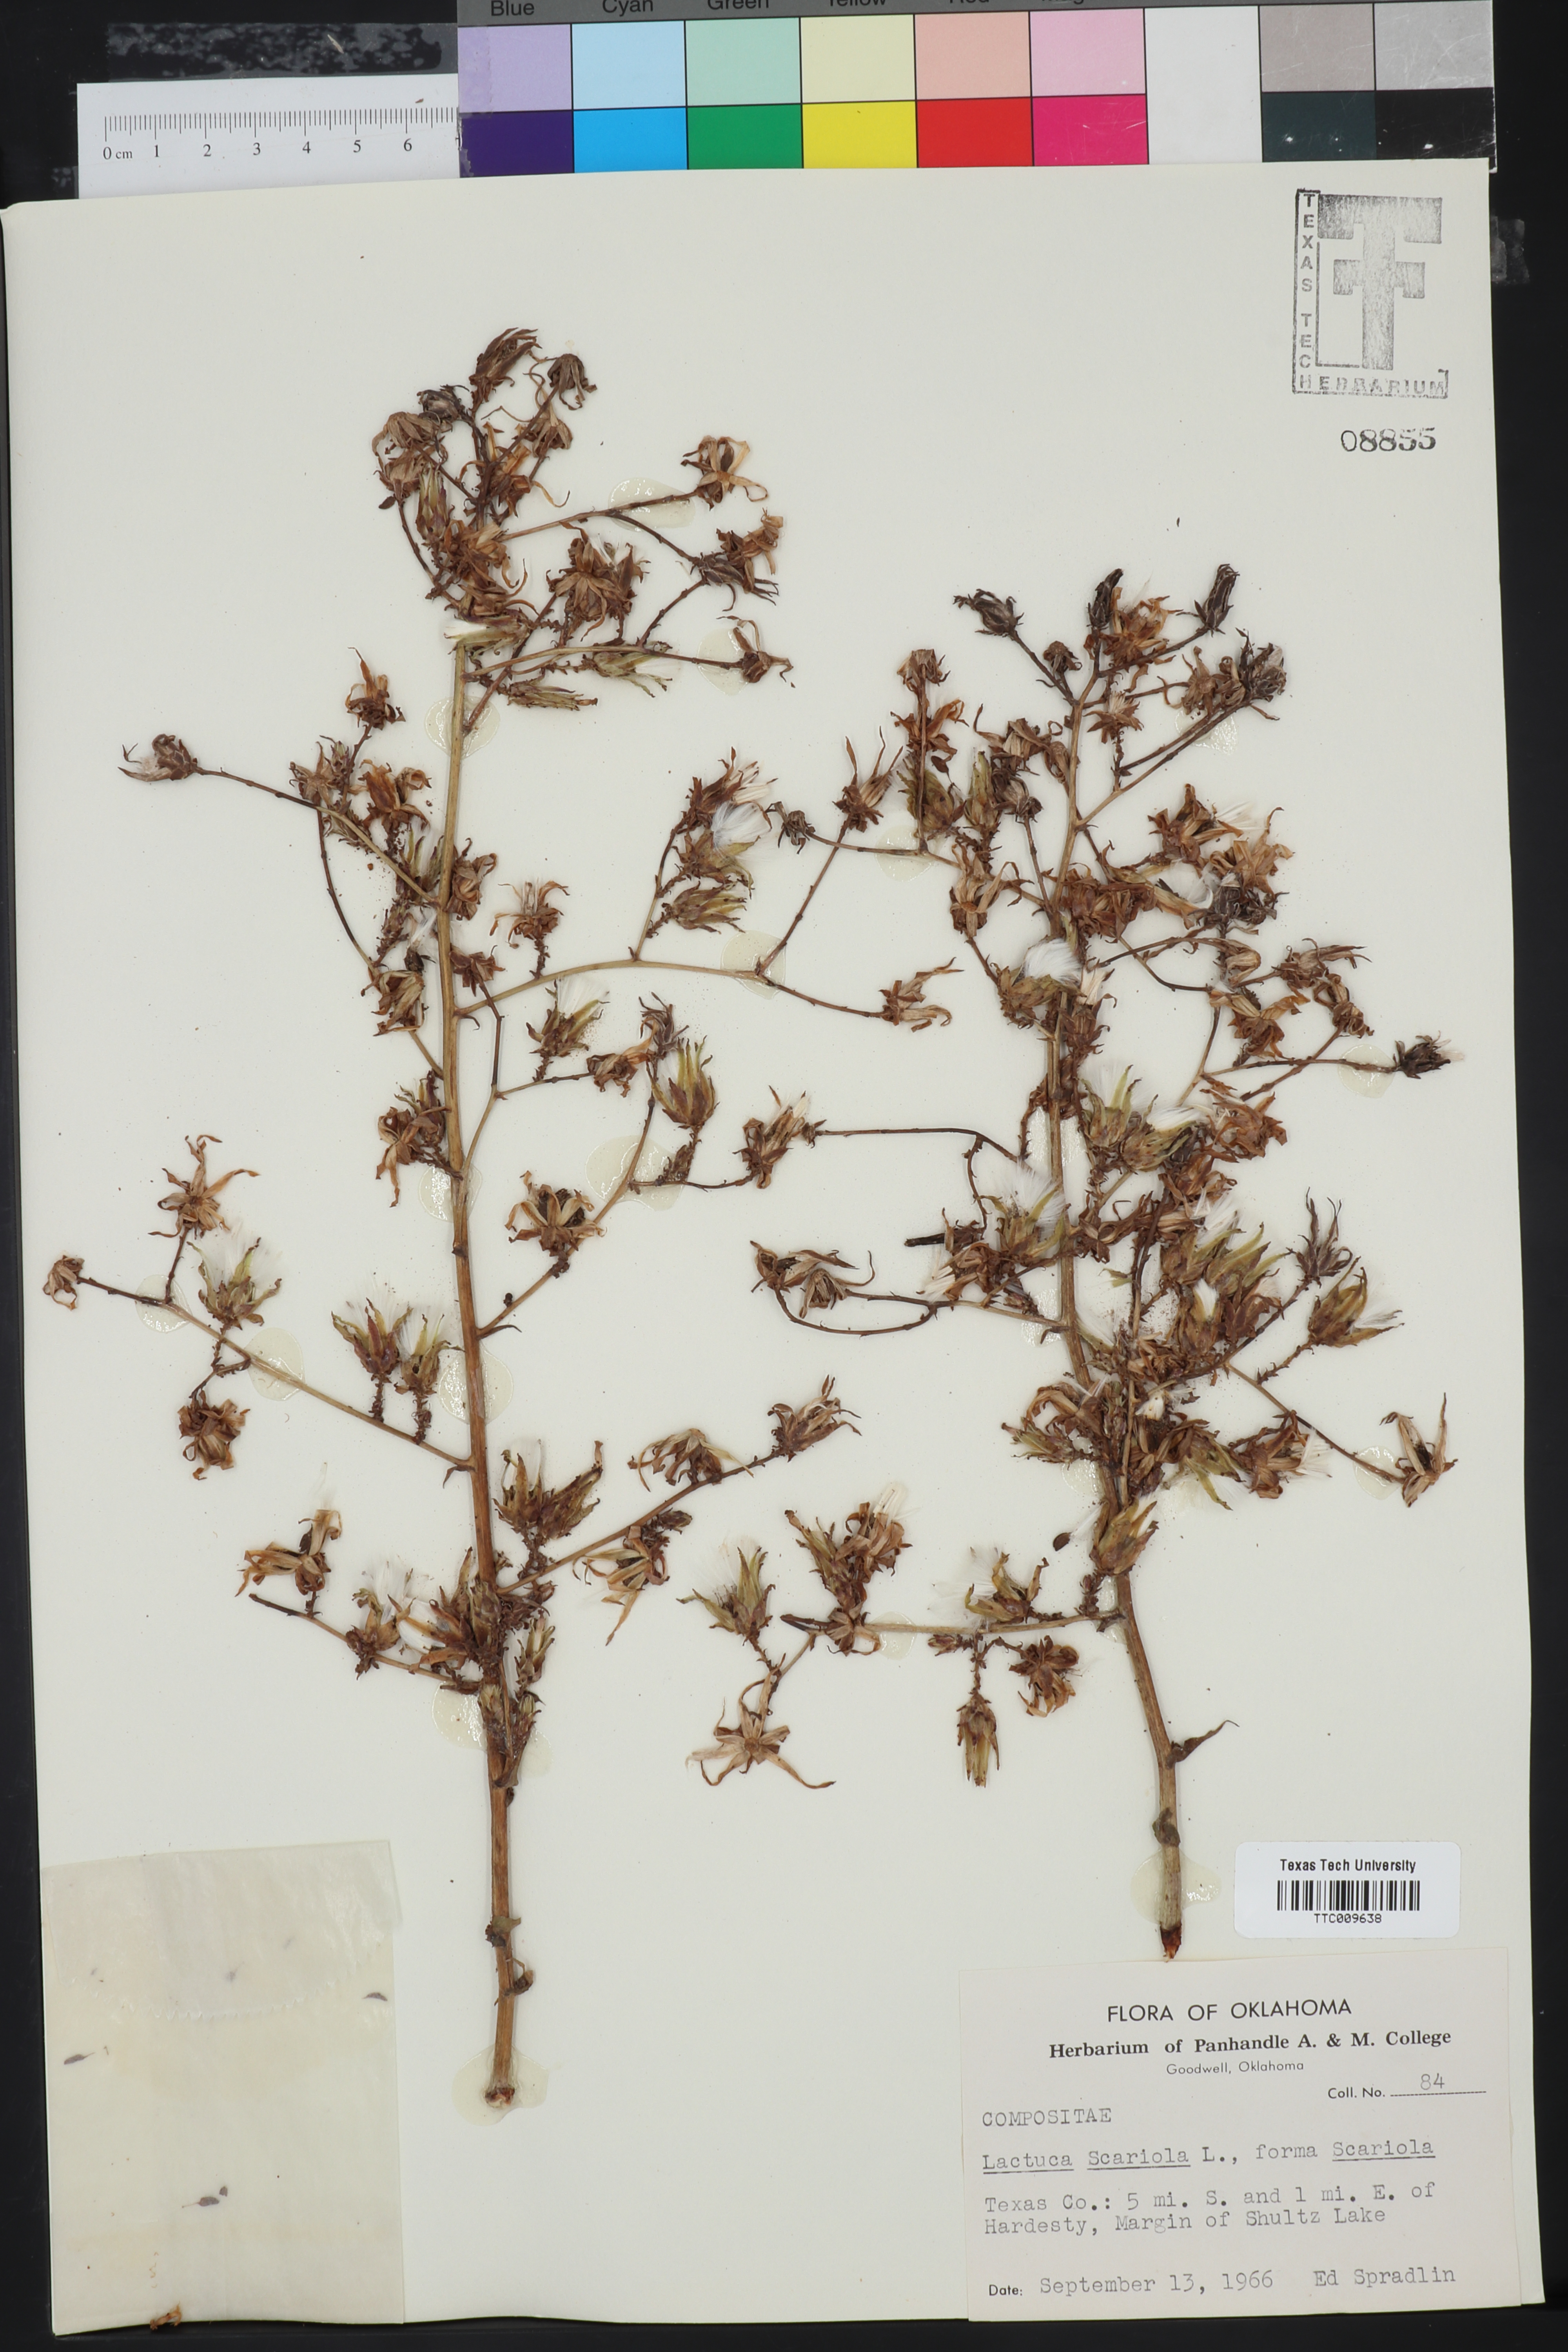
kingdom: Plantae
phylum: Tracheophyta
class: Magnoliopsida
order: Asterales
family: Asteraceae
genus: Lactuca
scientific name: Lactuca serriola
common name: Prickly lettuce
